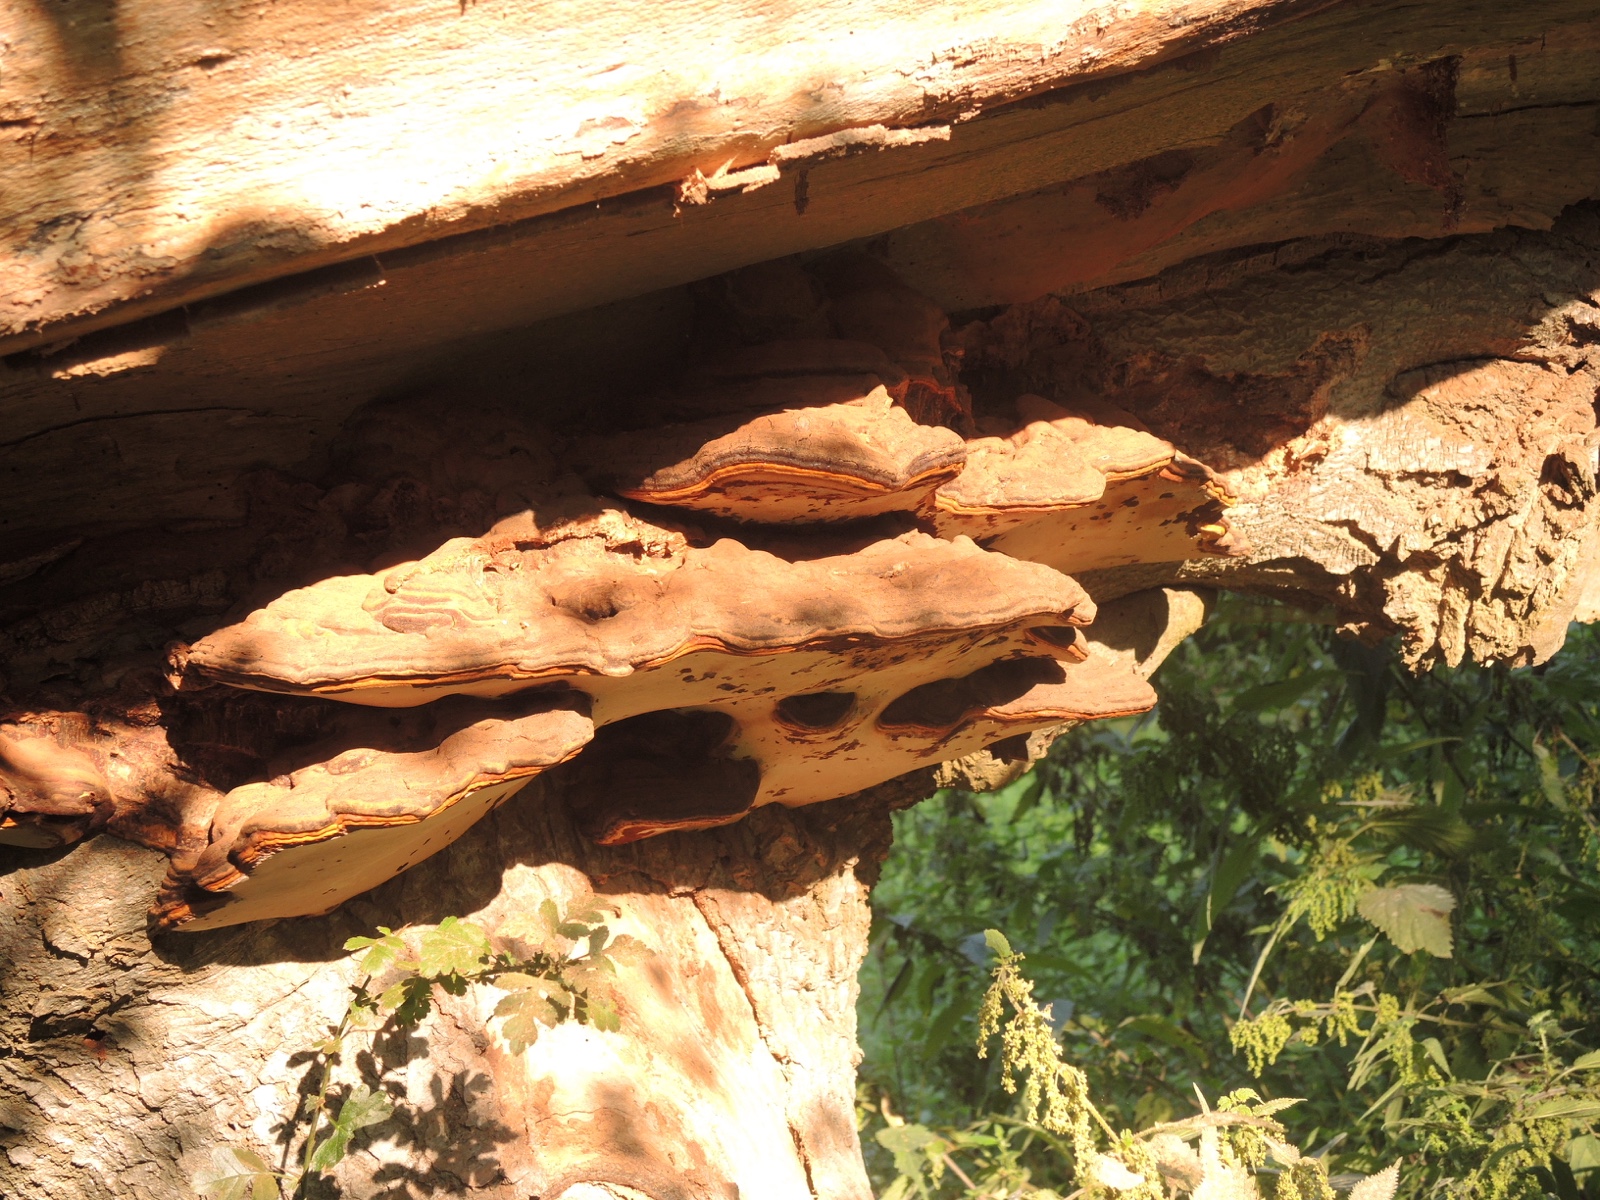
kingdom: Fungi
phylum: Basidiomycota
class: Agaricomycetes
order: Polyporales
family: Polyporaceae
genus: Ganoderma
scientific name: Ganoderma pfeifferi
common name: kobberrød lakporesvamp
